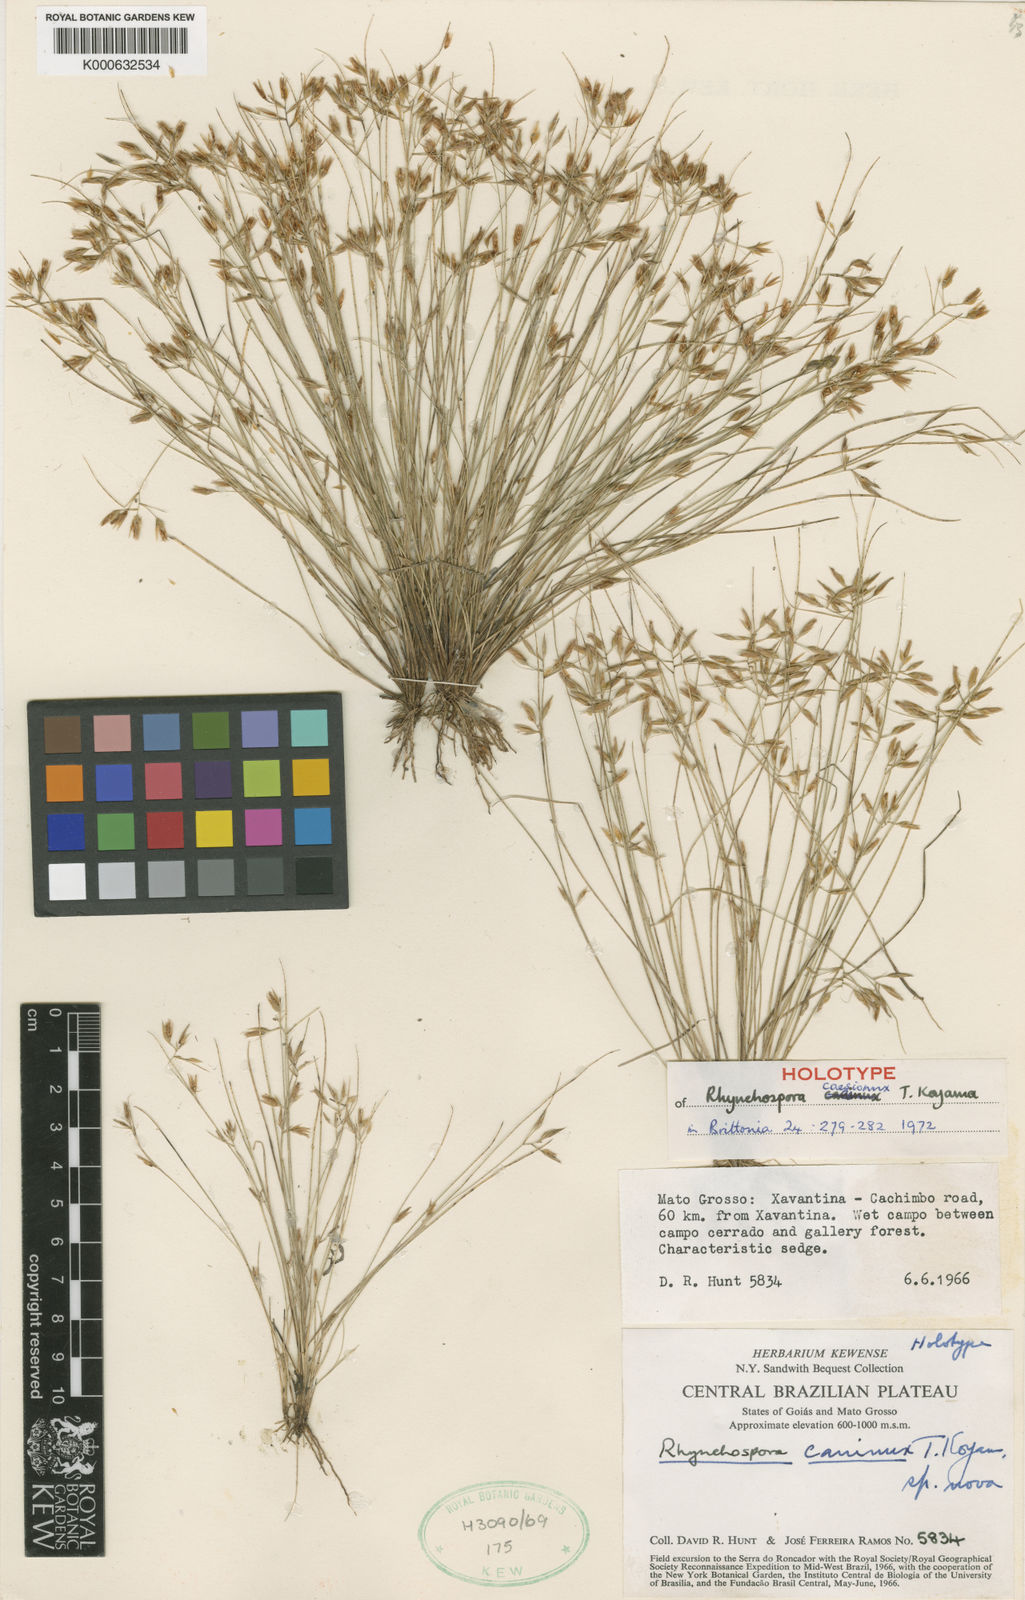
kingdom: Plantae
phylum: Tracheophyta
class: Liliopsida
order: Poales
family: Cyperaceae
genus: Rhynchospora
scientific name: Rhynchospora
